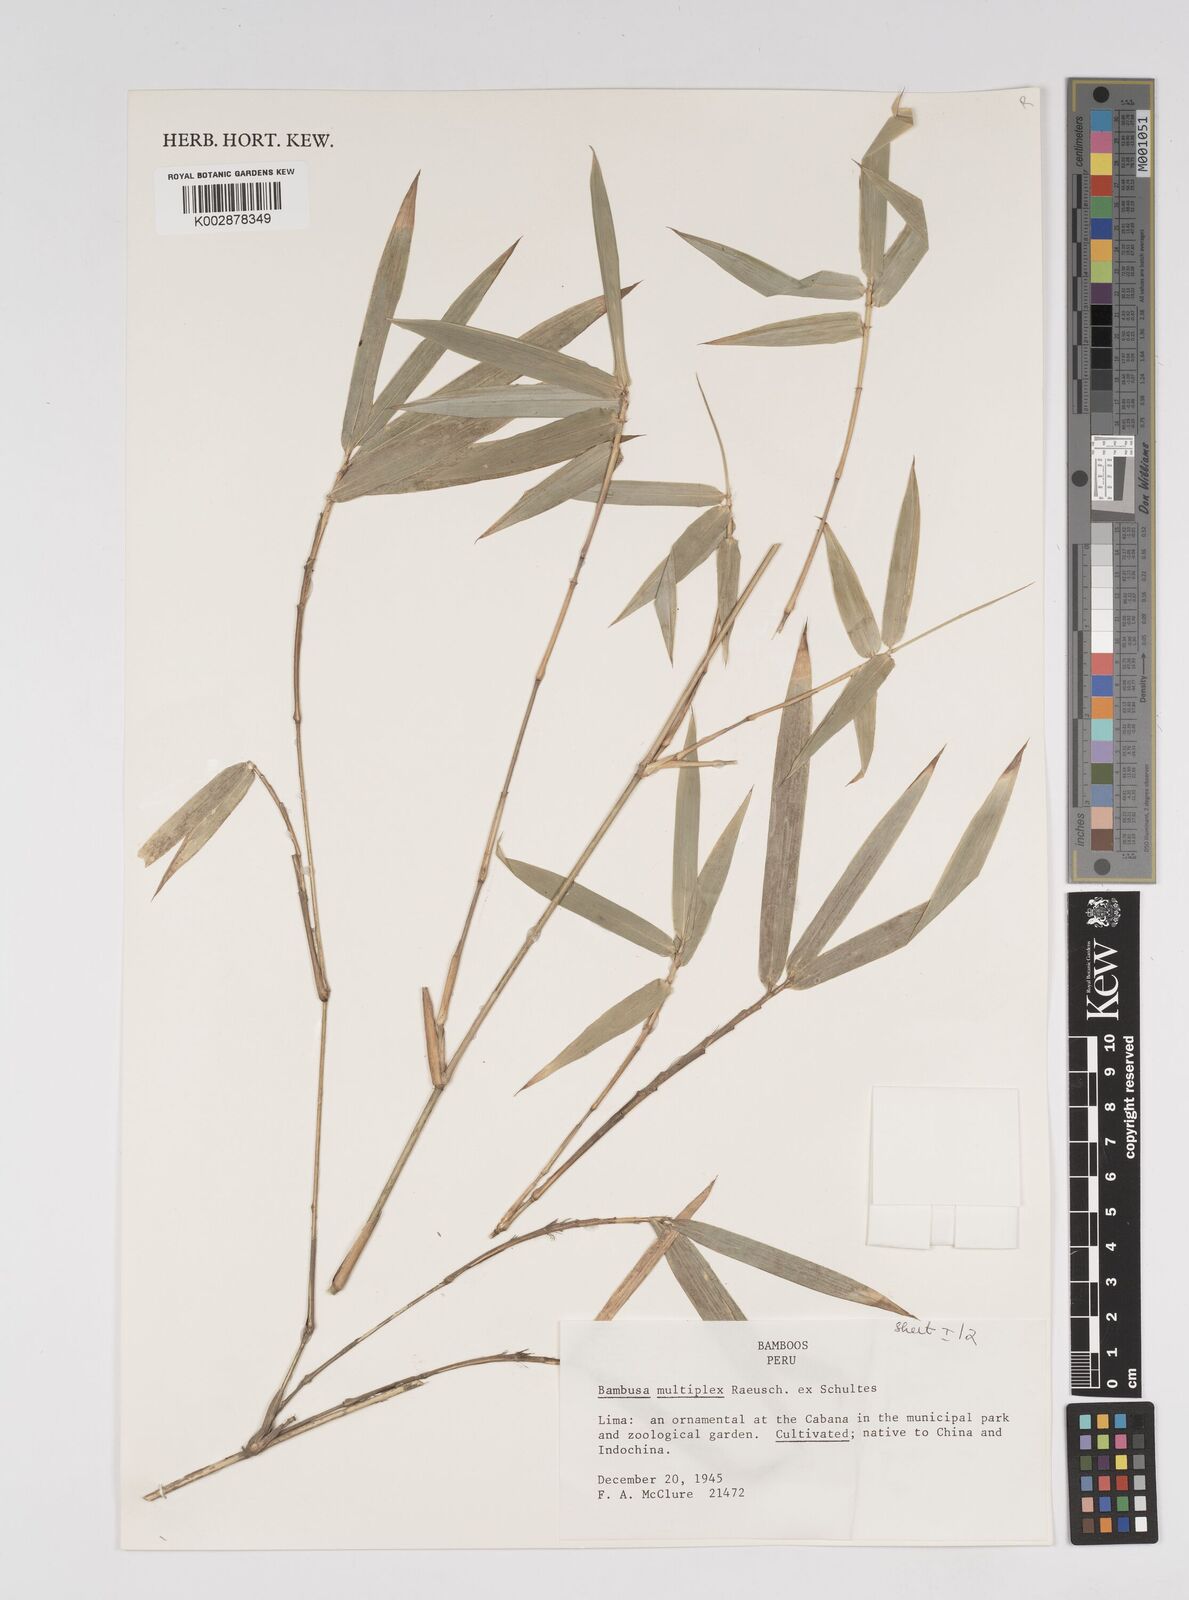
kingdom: Plantae
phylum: Tracheophyta
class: Liliopsida
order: Poales
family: Poaceae
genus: Bambusa
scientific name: Bambusa multiplex
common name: Hedge bamboo
